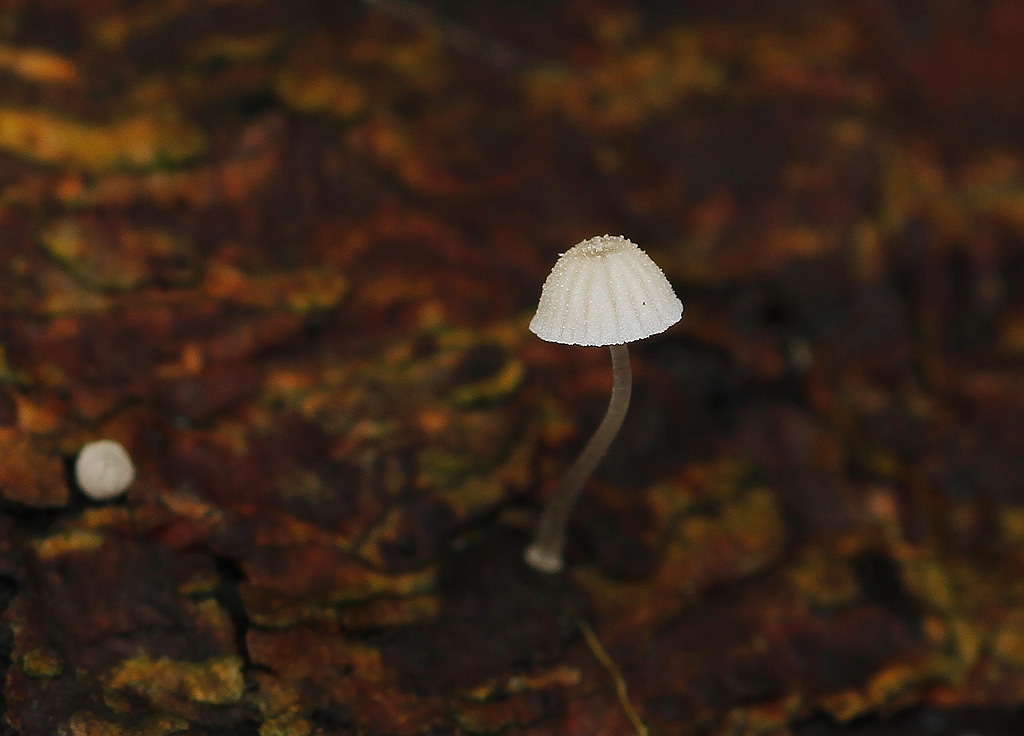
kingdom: Fungi
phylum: Basidiomycota
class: Agaricomycetes
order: Agaricales
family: Mycenaceae
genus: Mycena
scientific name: Mycena tenerrima
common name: pudret huesvamp
